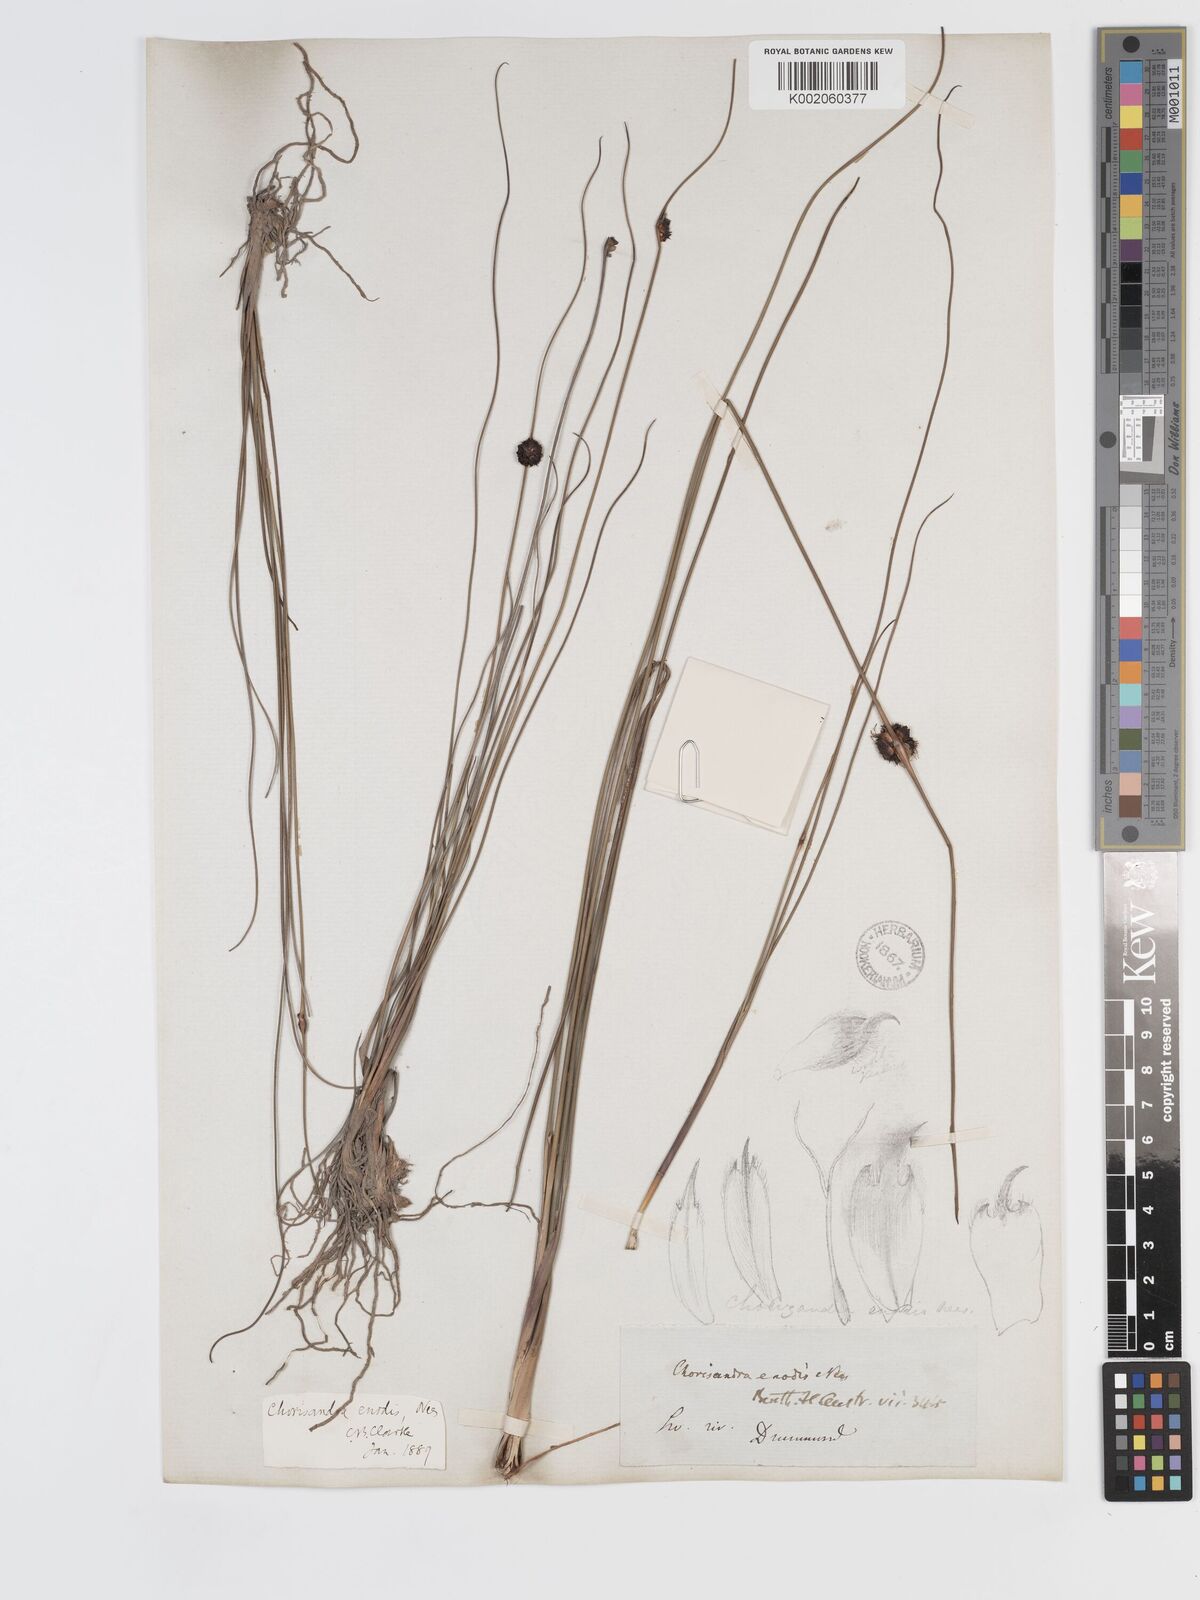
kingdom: Plantae
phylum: Tracheophyta
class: Liliopsida
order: Poales
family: Cyperaceae
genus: Chorizandra
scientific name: Chorizandra enodis
